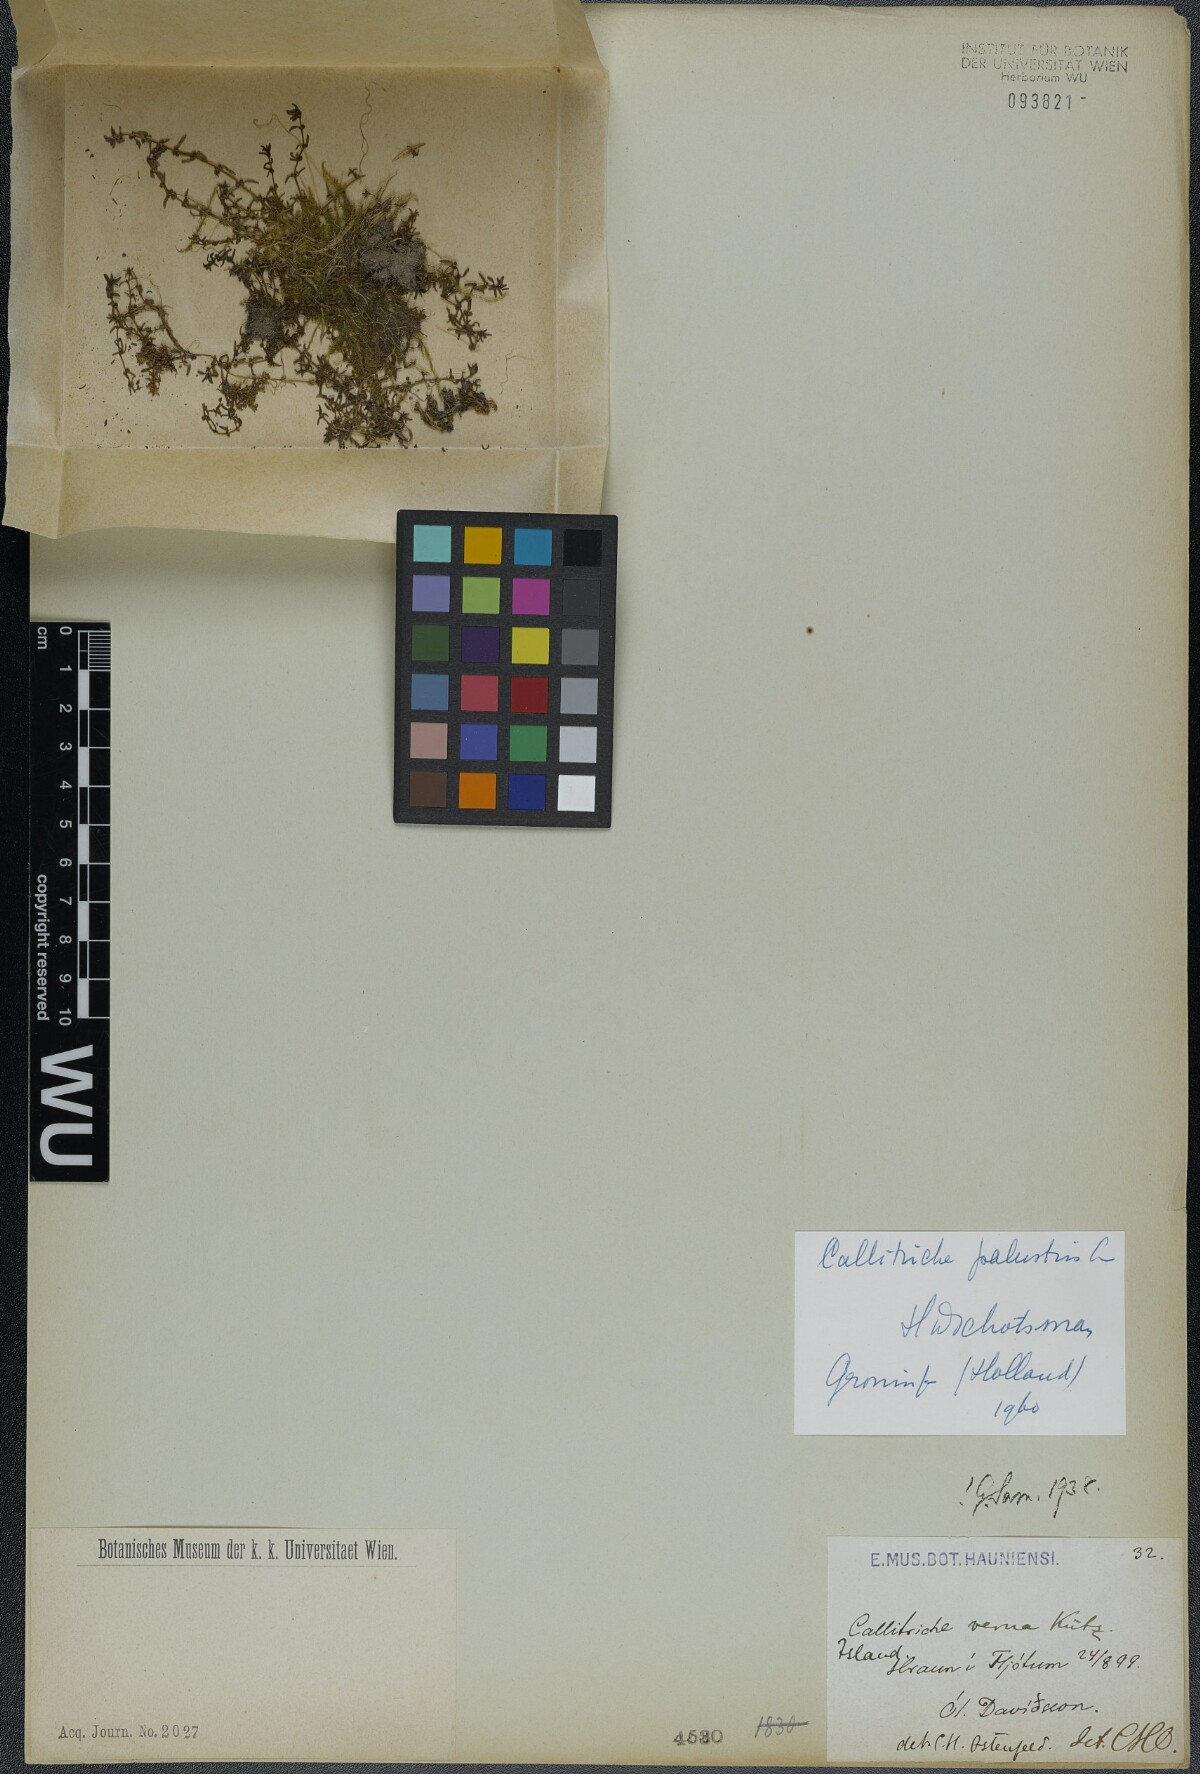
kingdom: Plantae
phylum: Tracheophyta
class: Magnoliopsida
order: Lamiales
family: Plantaginaceae
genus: Callitriche
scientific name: Callitriche palustris
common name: Spring water-starwort
